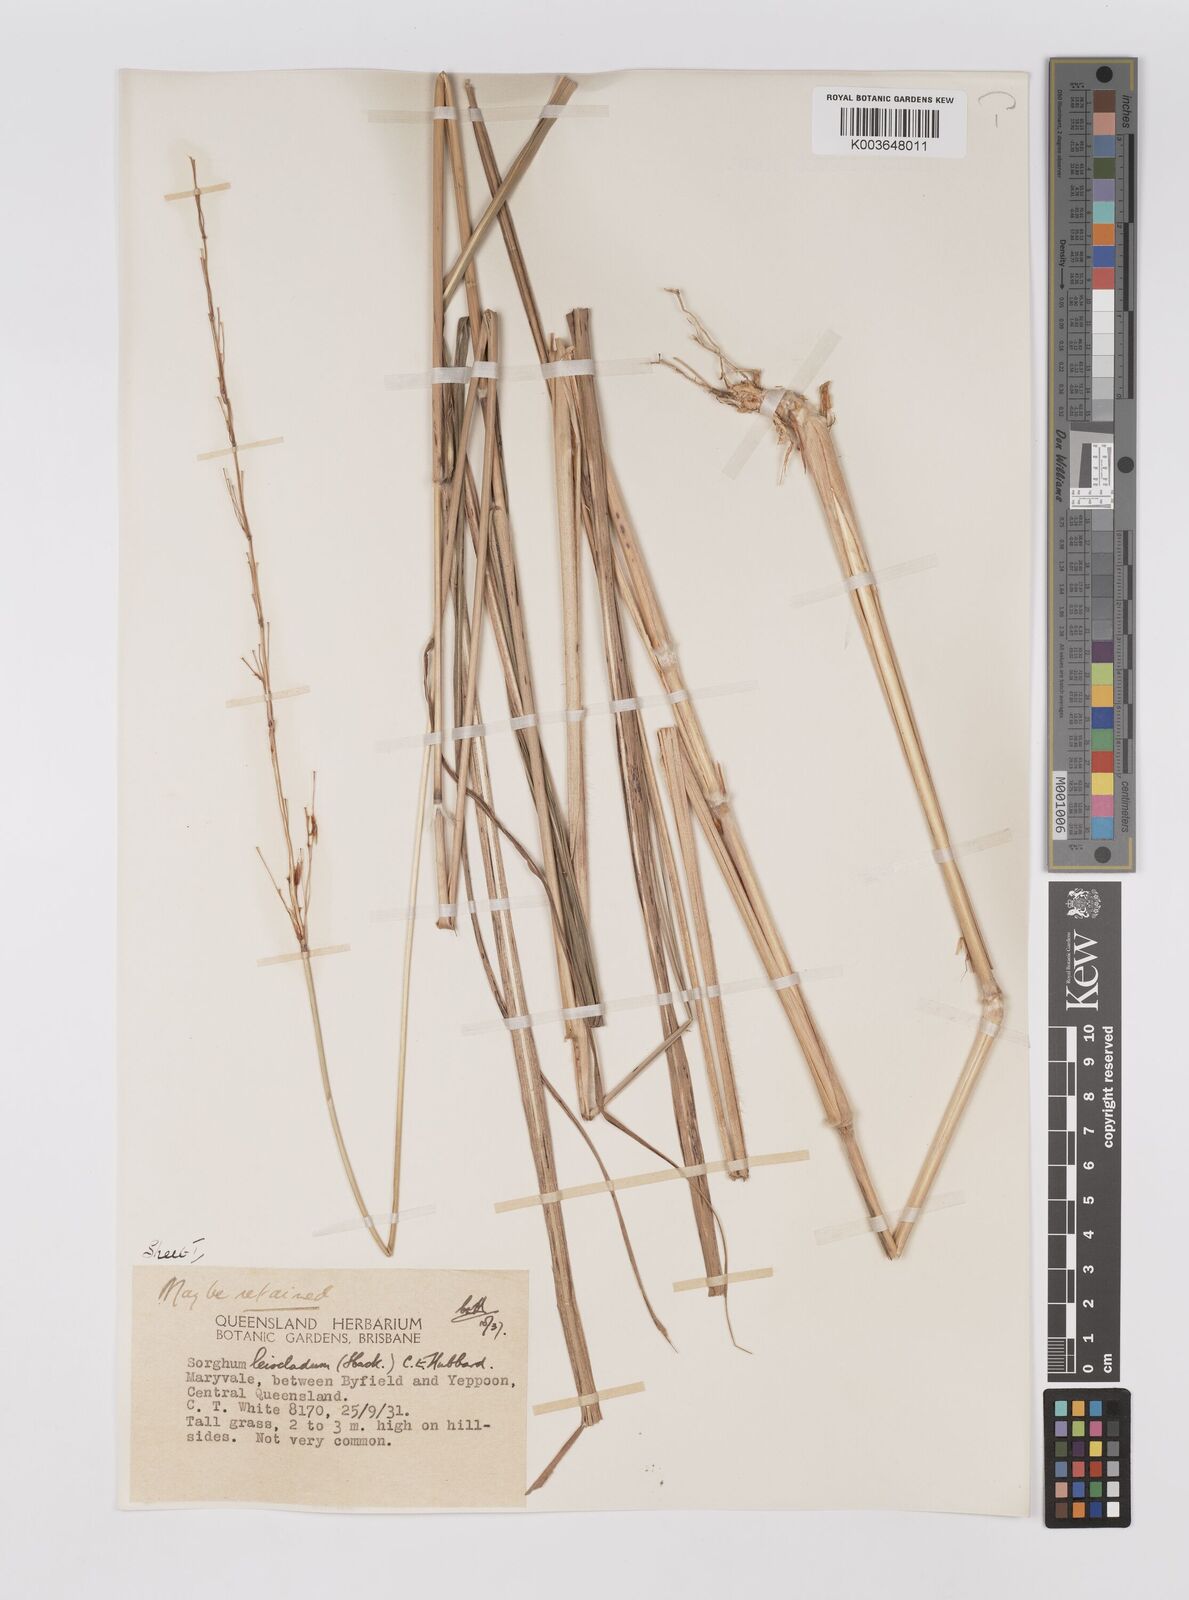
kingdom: Plantae
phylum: Tracheophyta
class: Liliopsida
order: Poales
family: Poaceae
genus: Sarga
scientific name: Sarga leioclada
